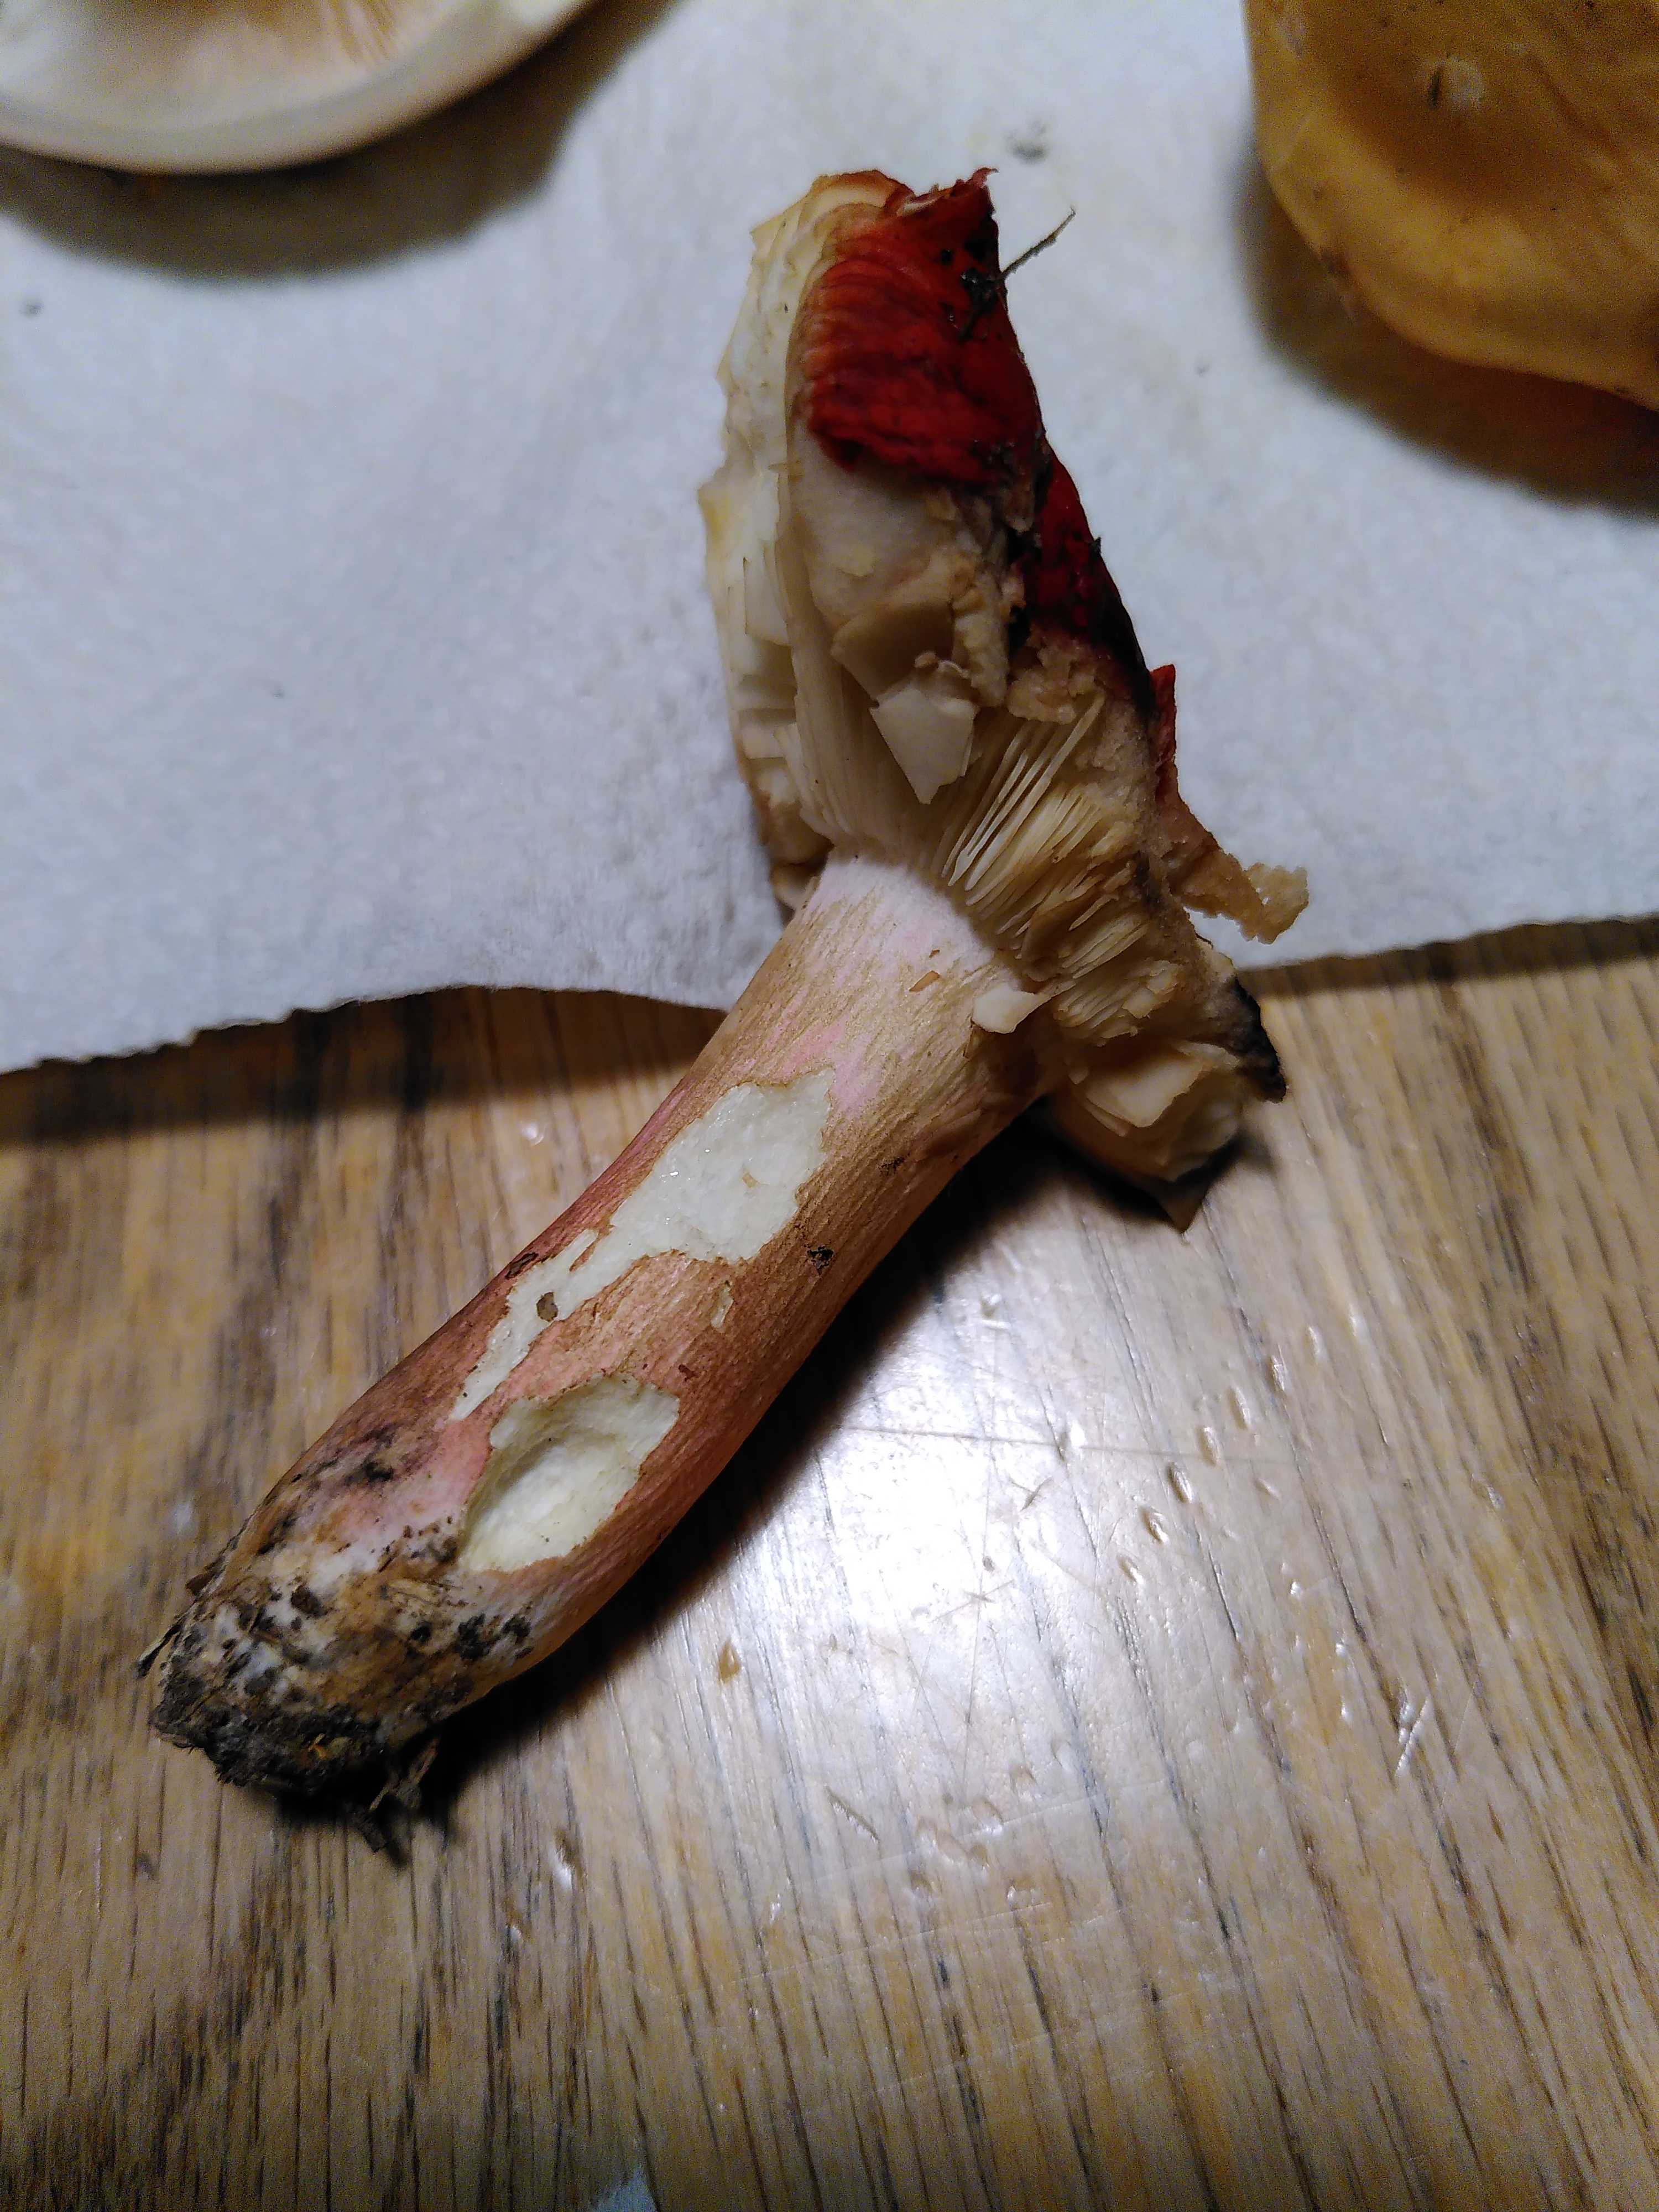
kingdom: Fungi
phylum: Basidiomycota
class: Agaricomycetes
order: Russulales
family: Russulaceae
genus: Russula
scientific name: Russula xerampelina
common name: hummer-skørhat
